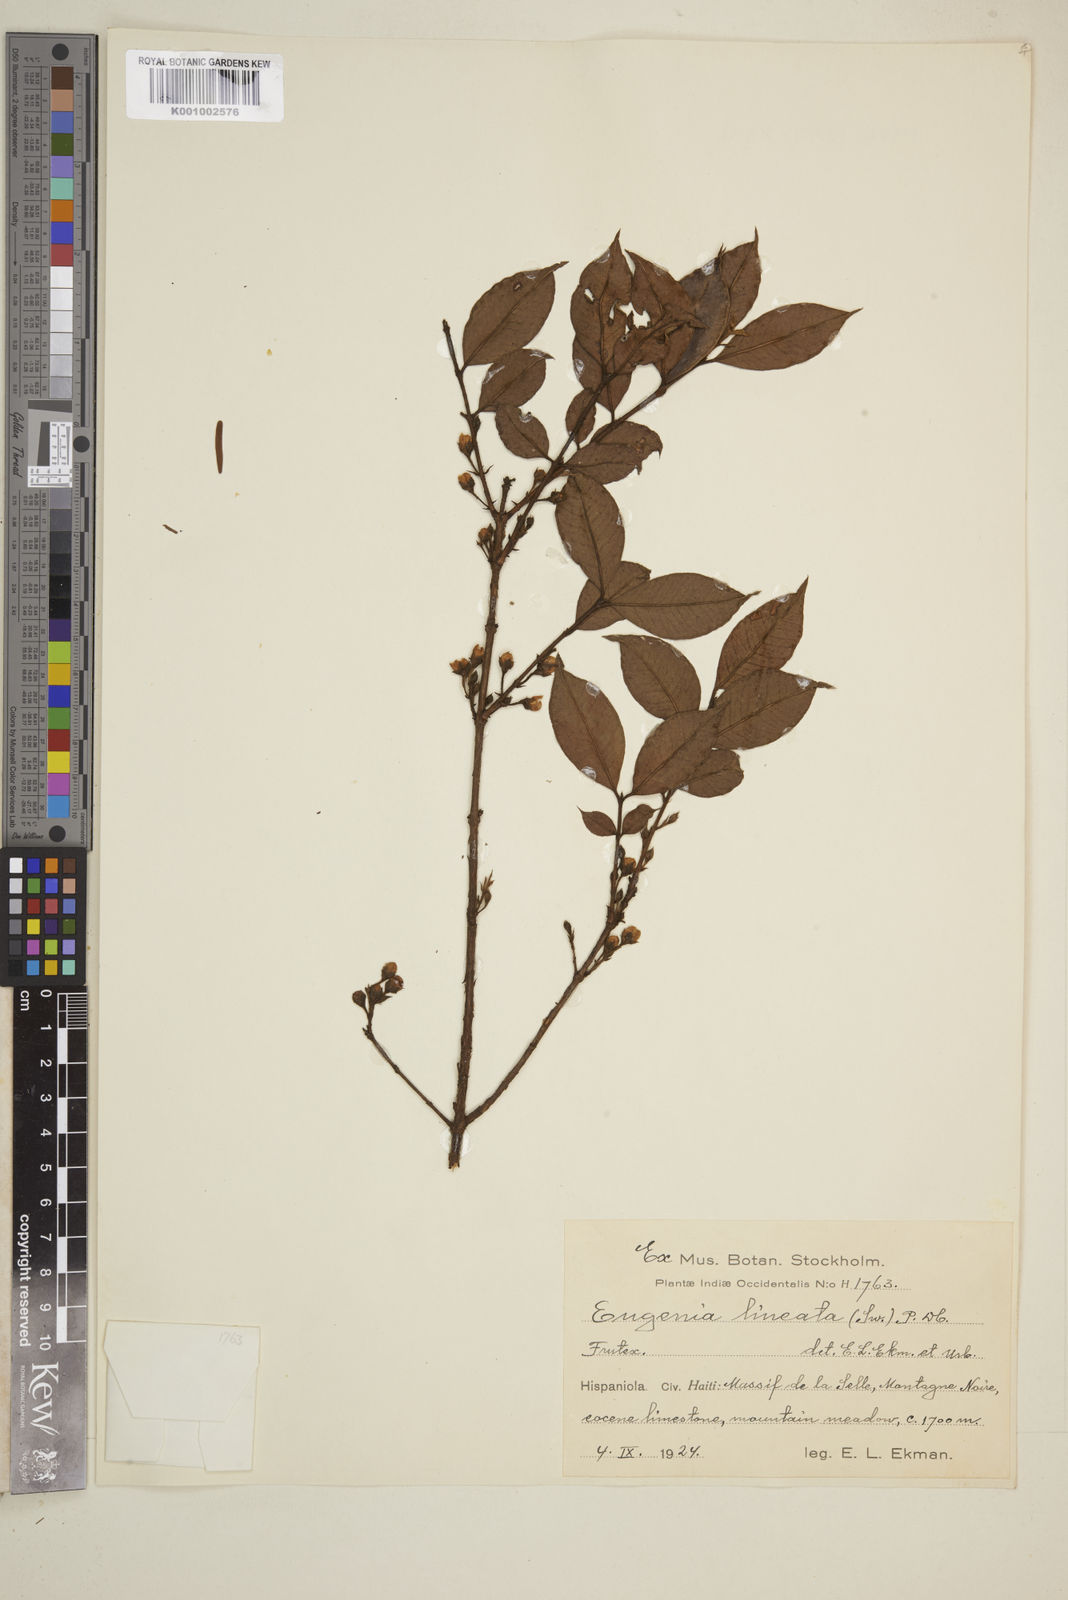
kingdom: Plantae
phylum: Tracheophyta
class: Magnoliopsida
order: Myrtales
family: Myrtaceae
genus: Eugenia
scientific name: Eugenia
